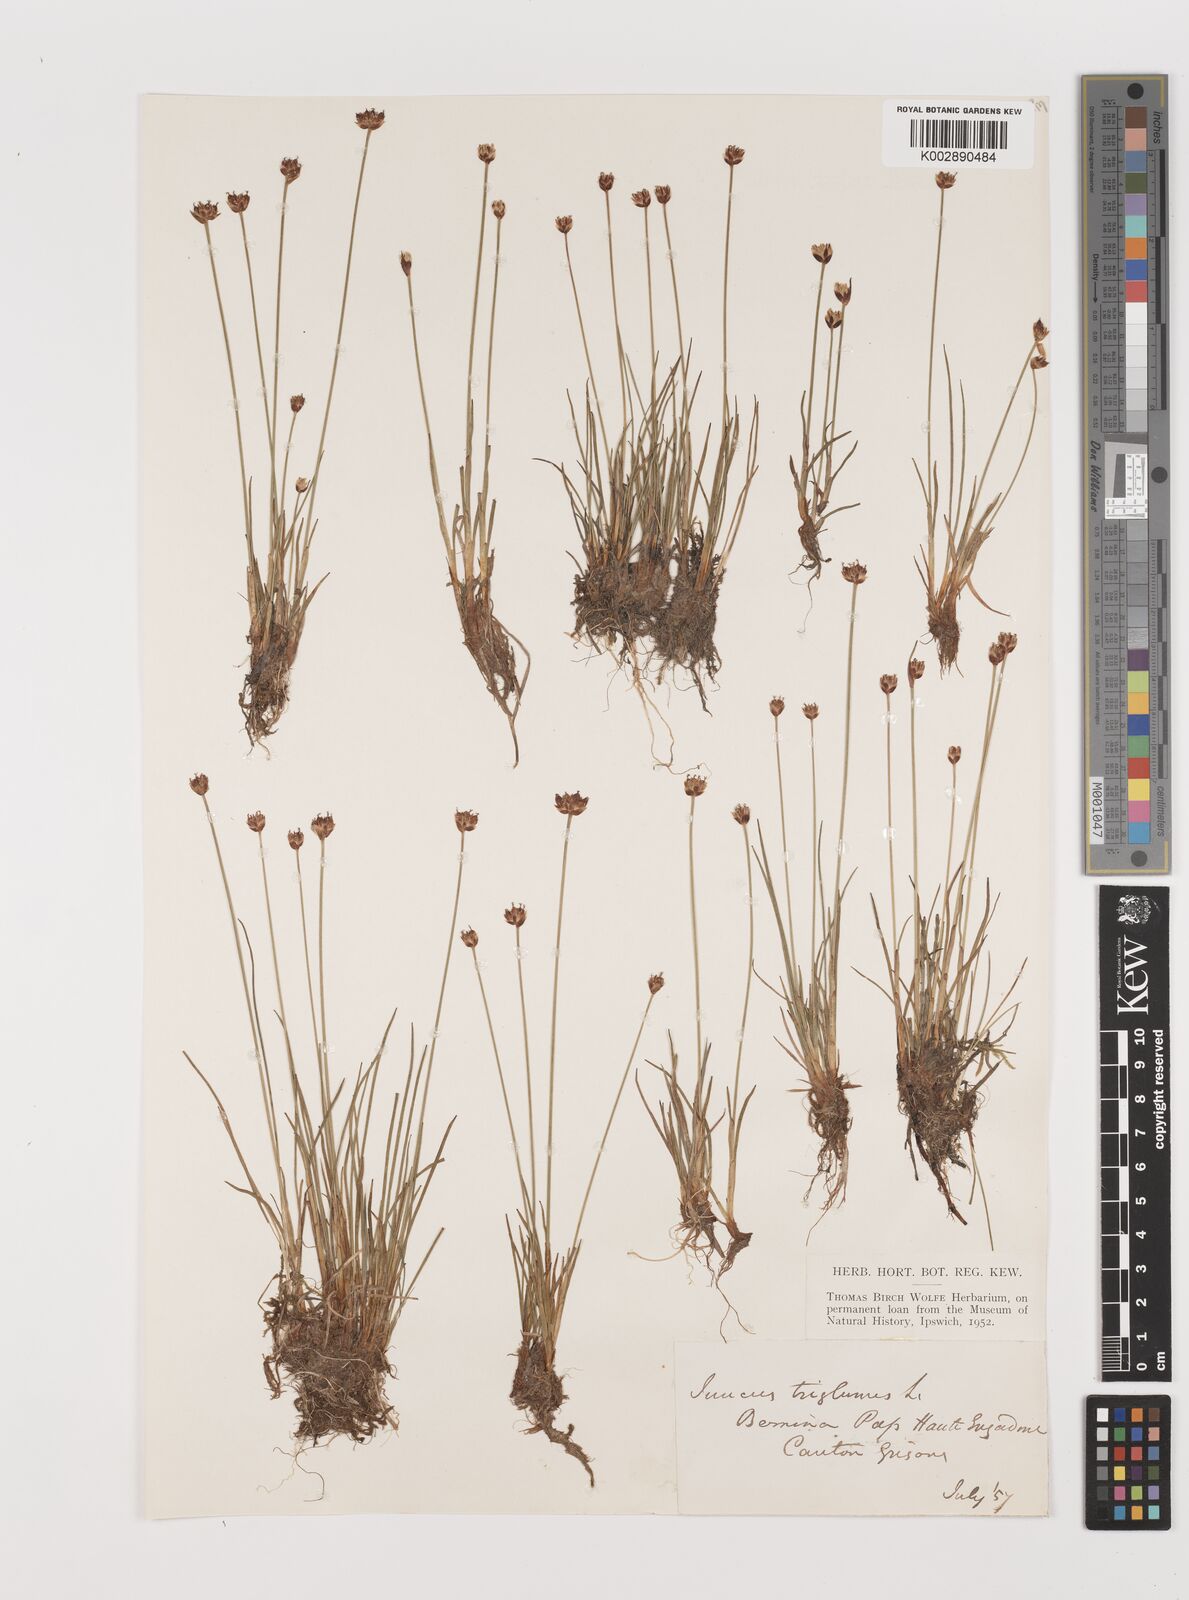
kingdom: Plantae
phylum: Tracheophyta
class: Liliopsida
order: Poales
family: Juncaceae
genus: Juncus
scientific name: Juncus triglumis
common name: Three-flowered rush
